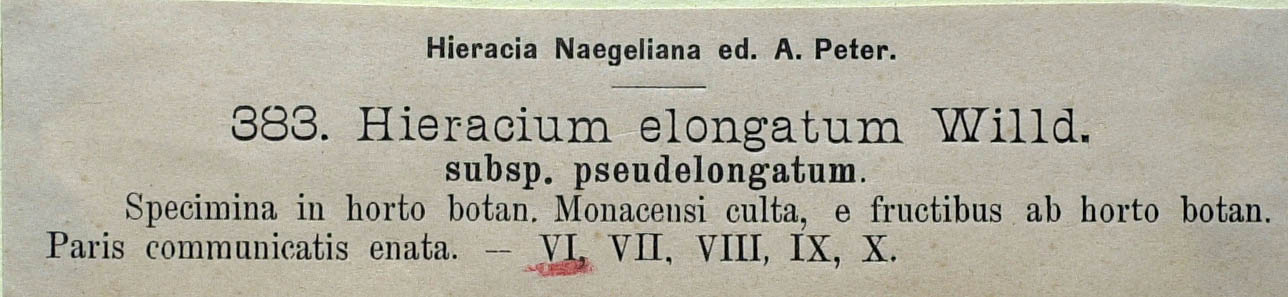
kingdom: Plantae
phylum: Tracheophyta
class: Magnoliopsida
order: Asterales
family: Asteraceae
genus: Hieracium
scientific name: Hieracium valdepilosum
